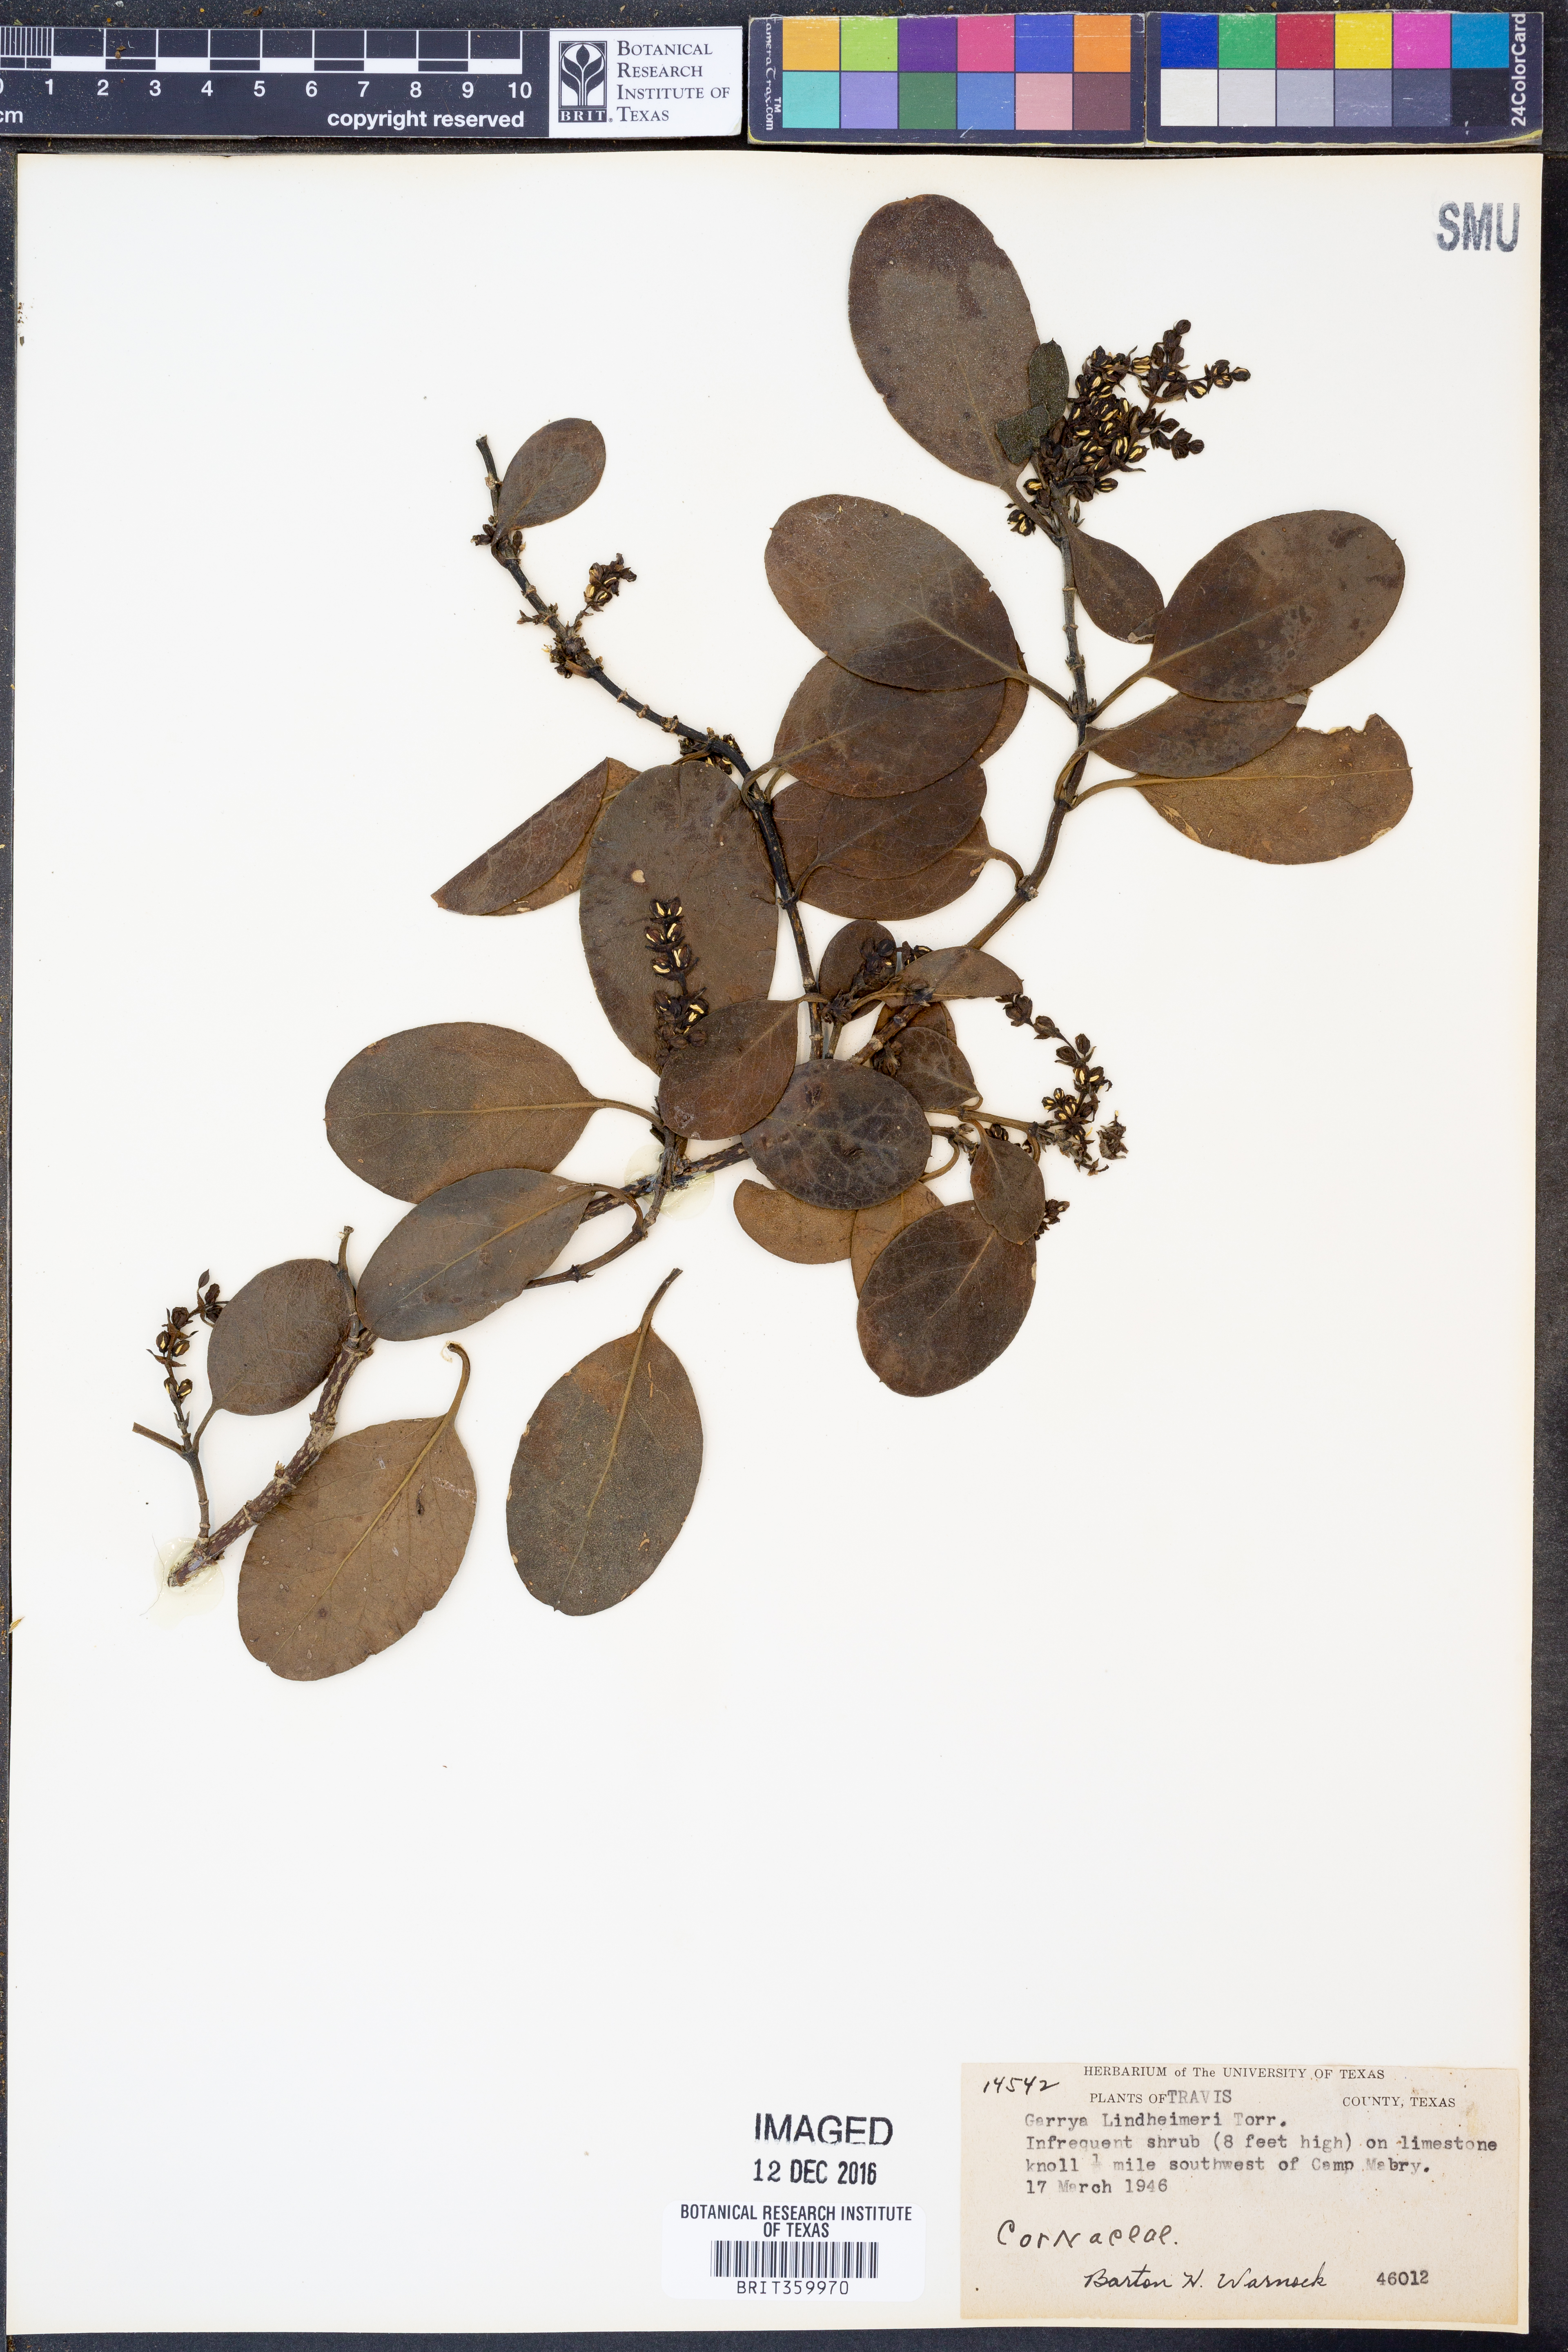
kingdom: Plantae
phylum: Tracheophyta
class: Magnoliopsida
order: Garryales
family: Garryaceae
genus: Garrya
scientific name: Garrya lindheimeri
